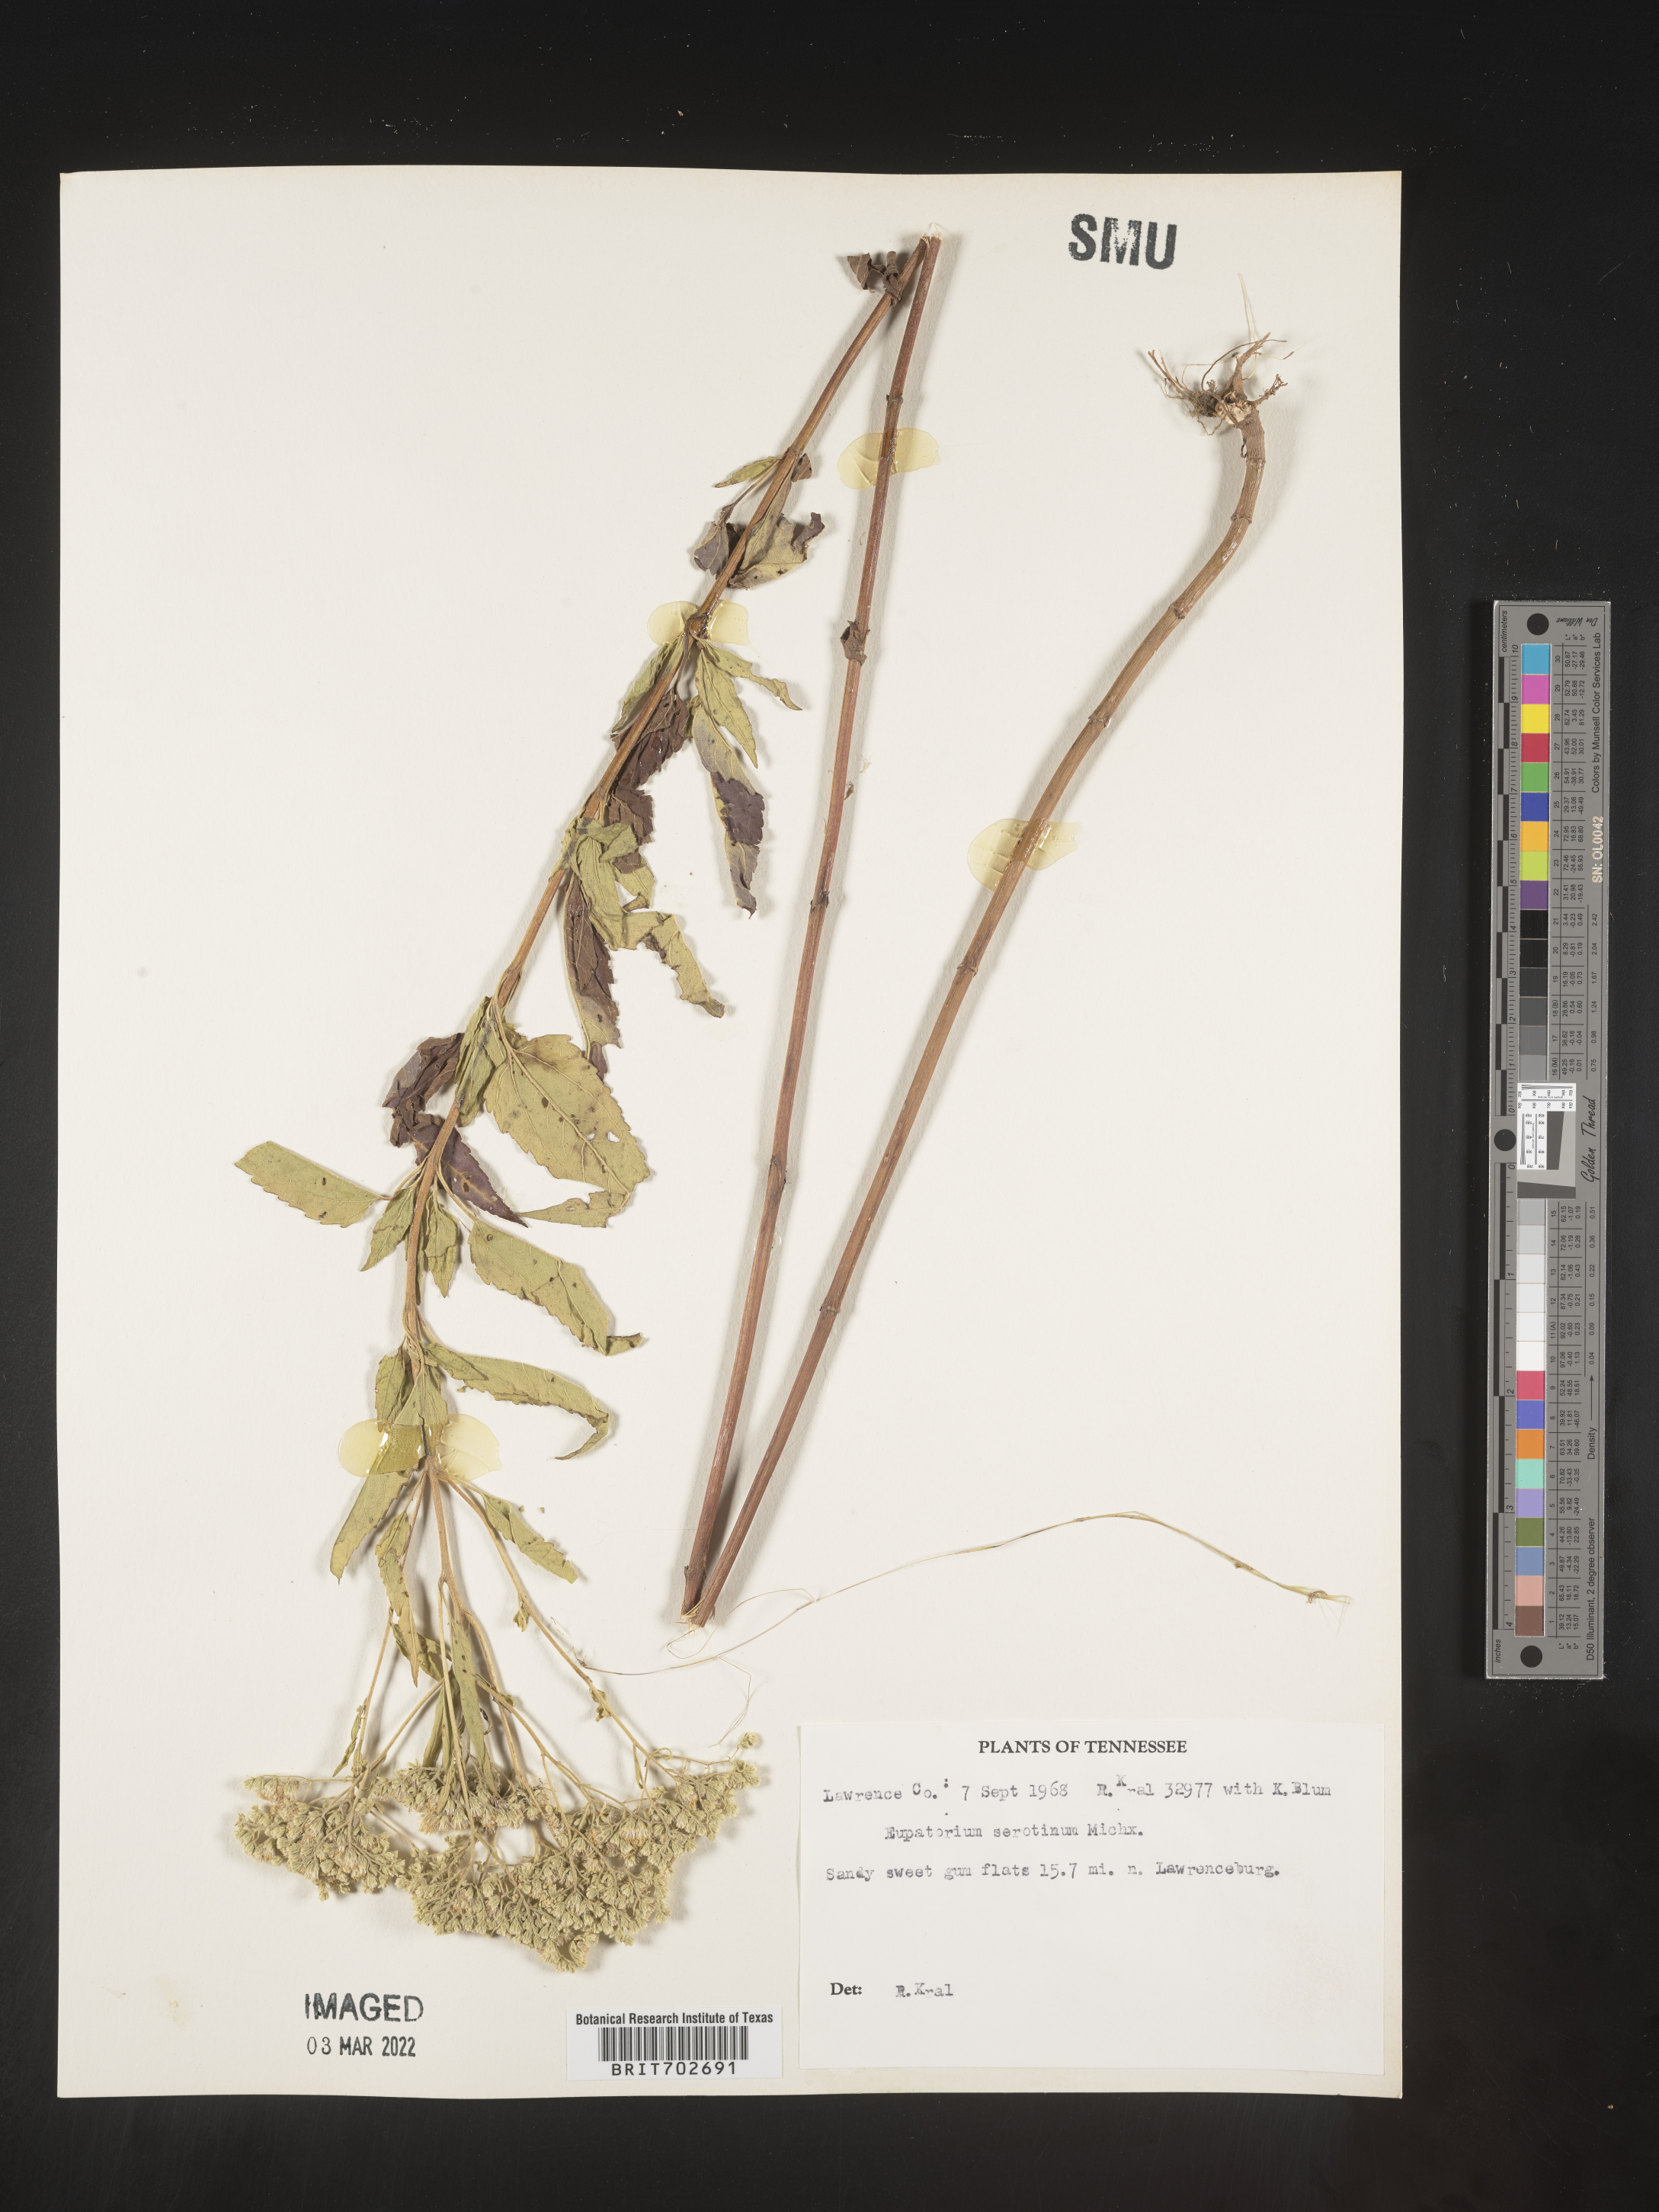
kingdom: Plantae
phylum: Tracheophyta
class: Magnoliopsida
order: Asterales
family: Asteraceae
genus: Eupatorium
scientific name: Eupatorium serotinum
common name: Late boneset
